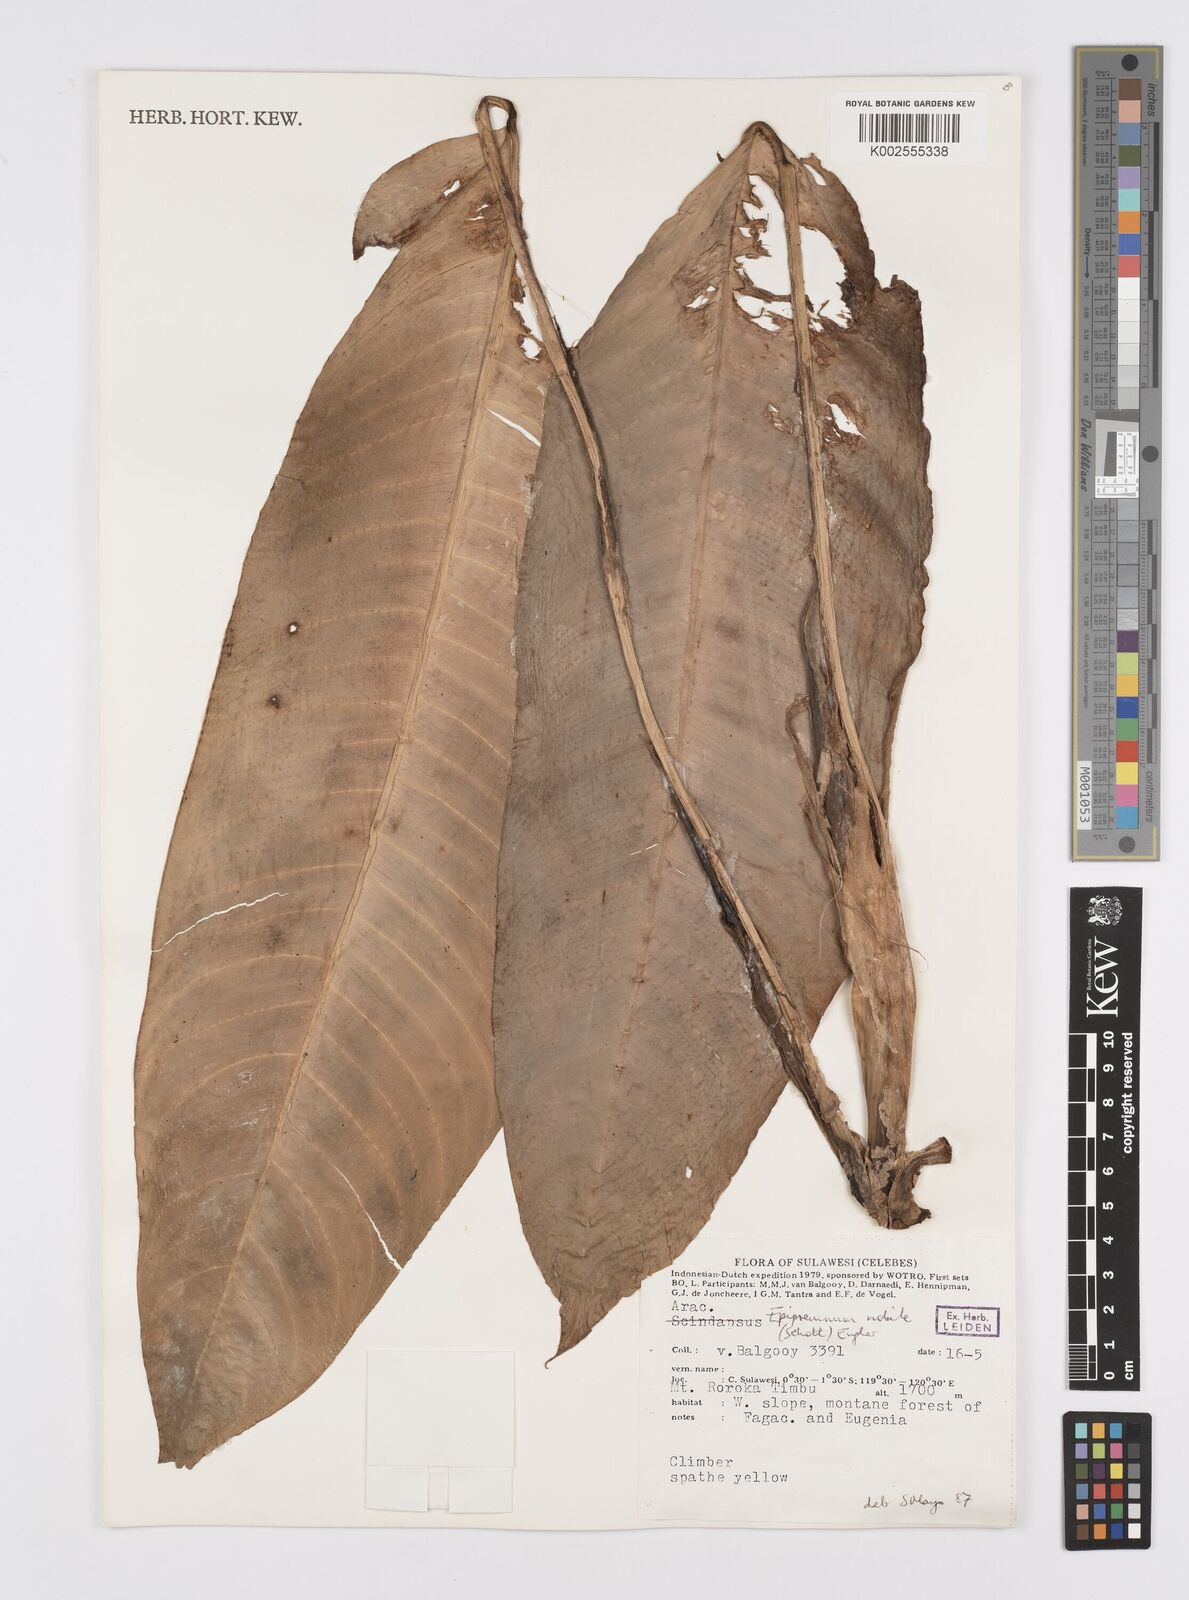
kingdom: Plantae
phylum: Tracheophyta
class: Liliopsida
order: Alismatales
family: Araceae
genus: Epipremnum
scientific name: Epipremnum nobile
